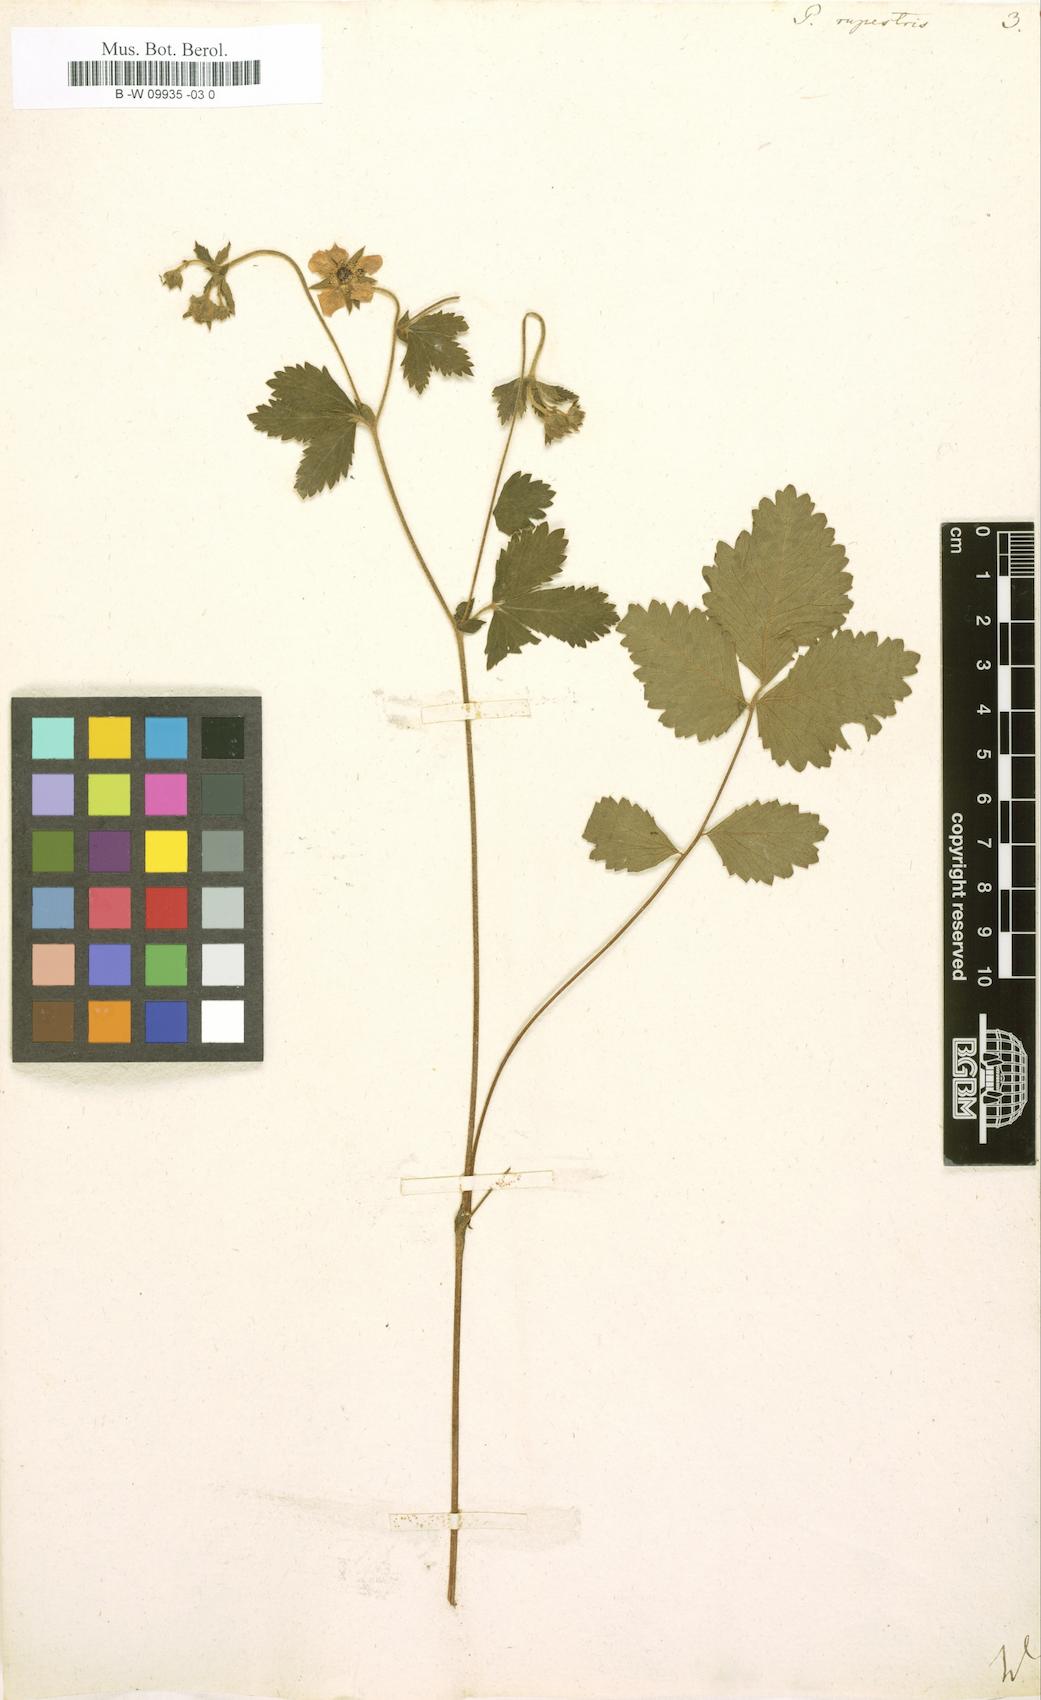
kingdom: Plantae
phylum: Tracheophyta
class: Magnoliopsida
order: Rosales
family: Rosaceae
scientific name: Rosaceae
